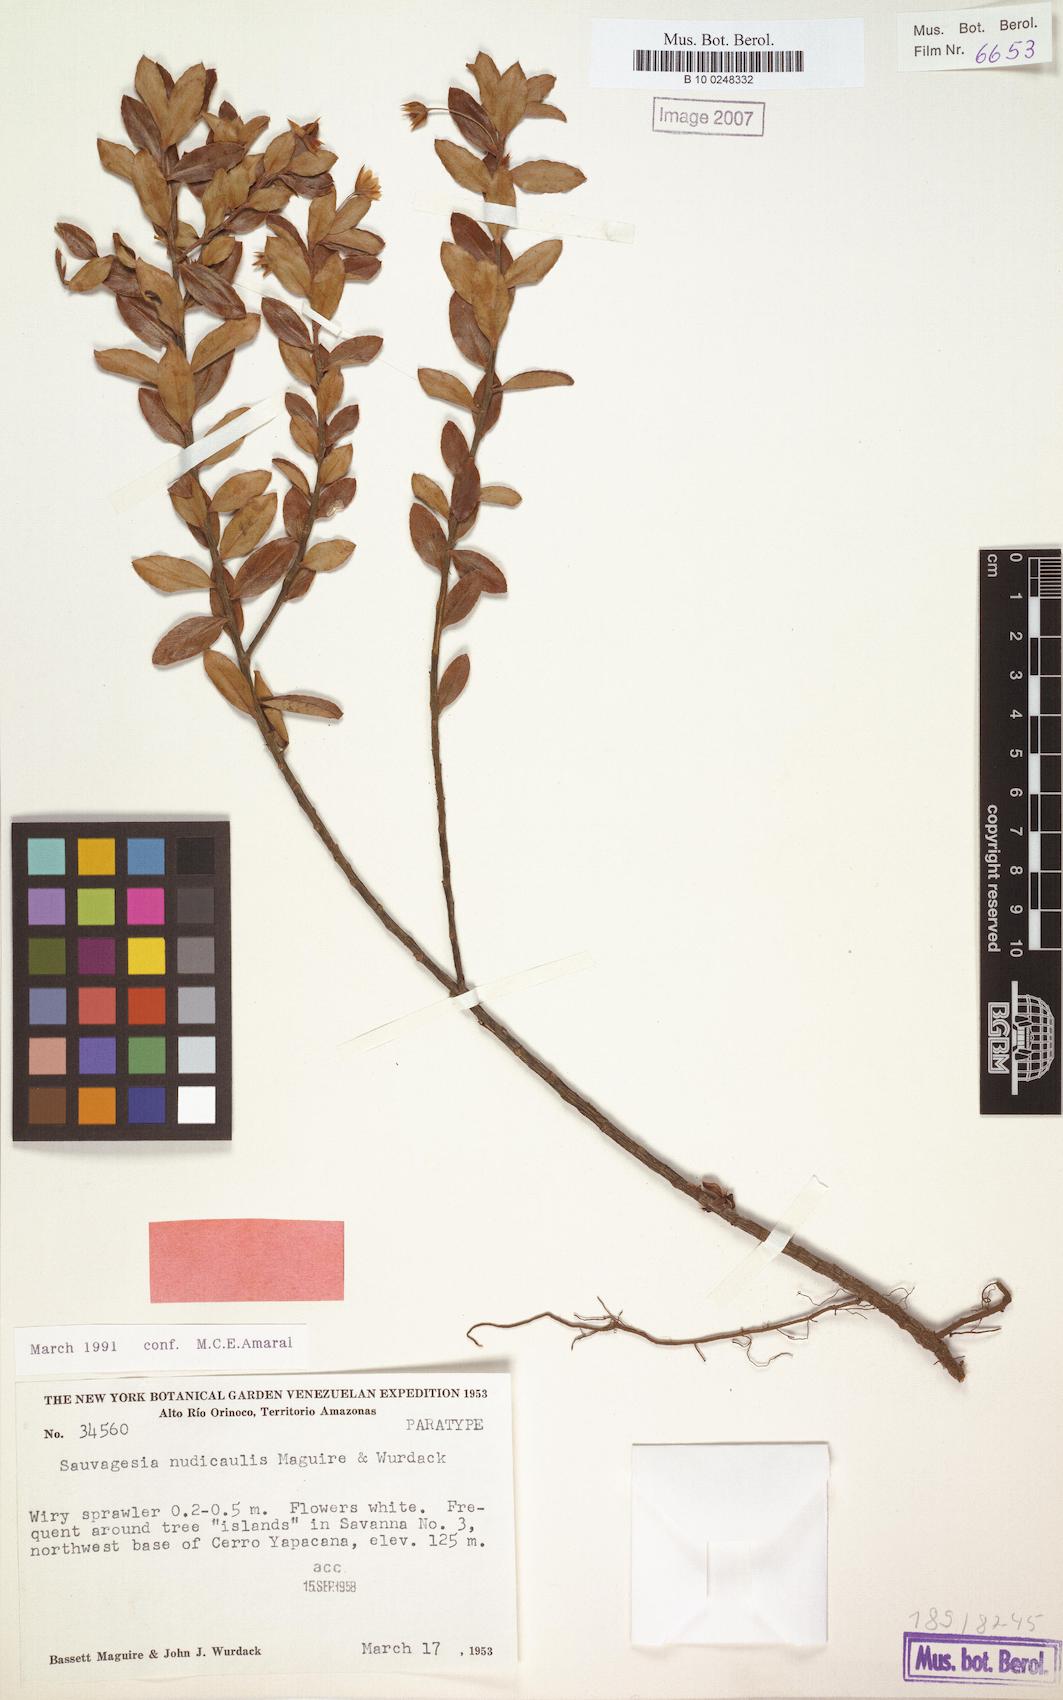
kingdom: Plantae
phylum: Tracheophyta
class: Magnoliopsida
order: Malpighiales
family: Ochnaceae
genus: Sauvagesia
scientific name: Sauvagesia nudicaulis
